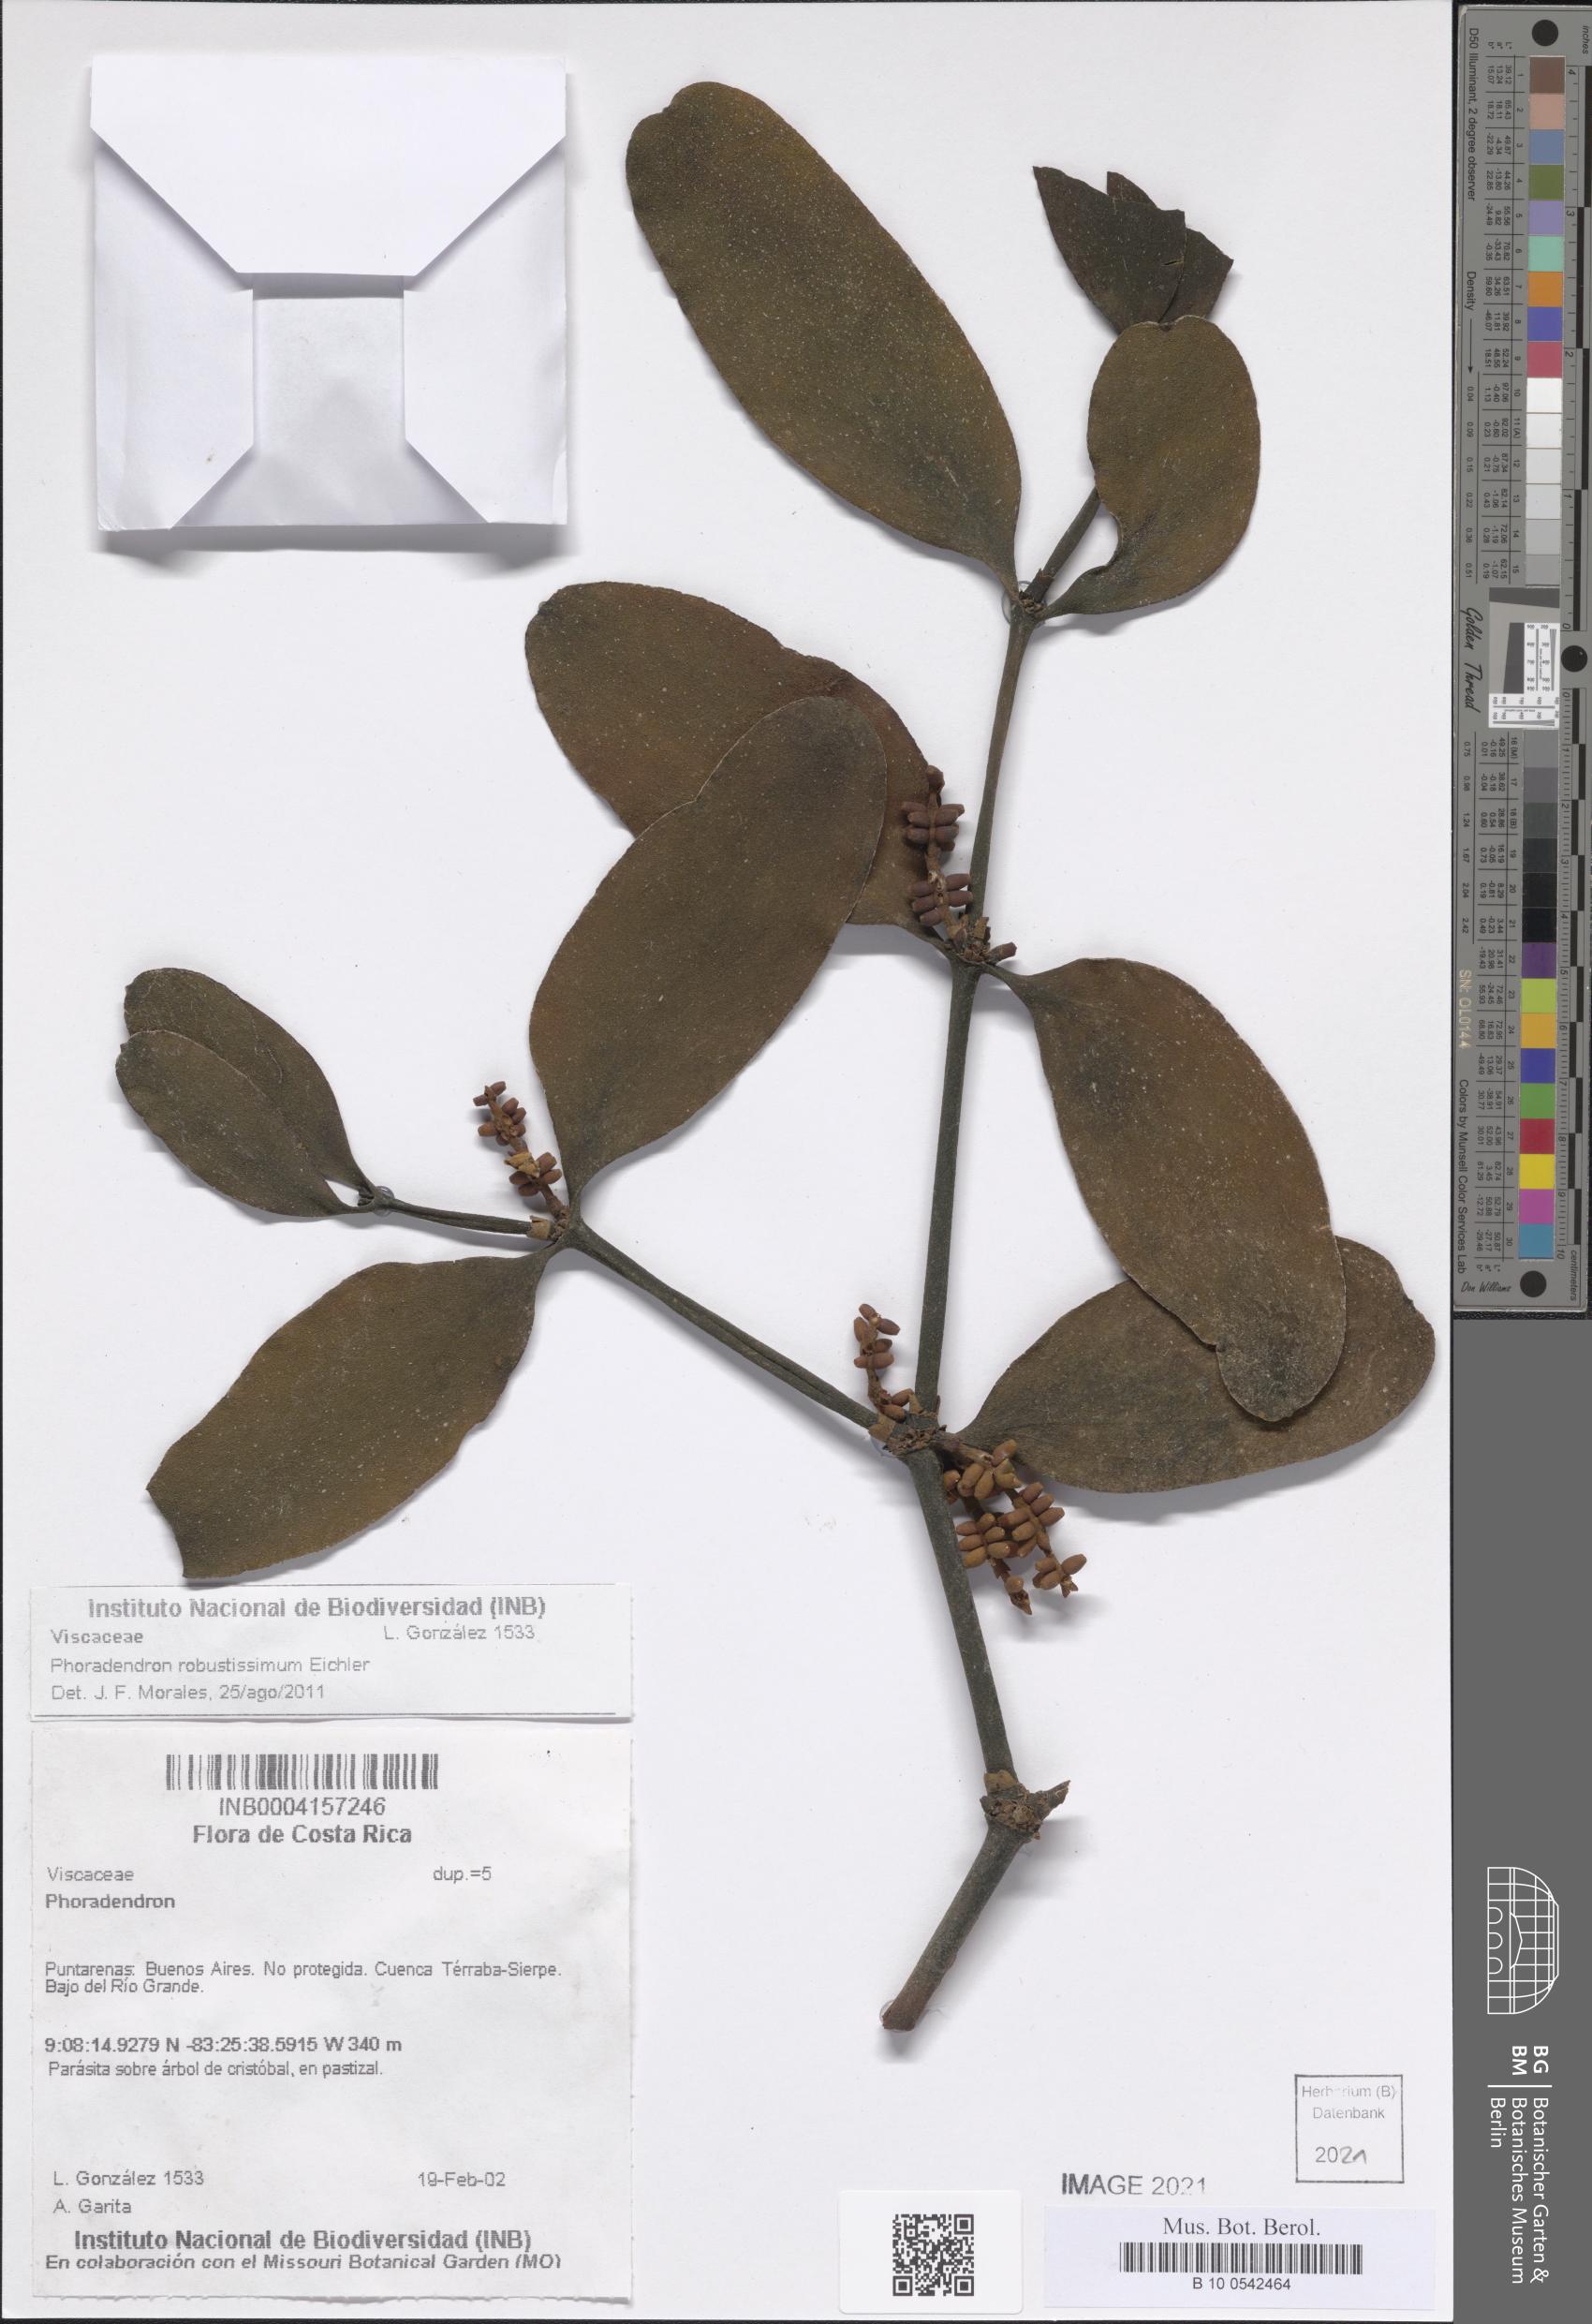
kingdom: Plantae
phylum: Tracheophyta
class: Magnoliopsida
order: Santalales
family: Viscaceae
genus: Phoradendron
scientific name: Phoradendron robustissimum
